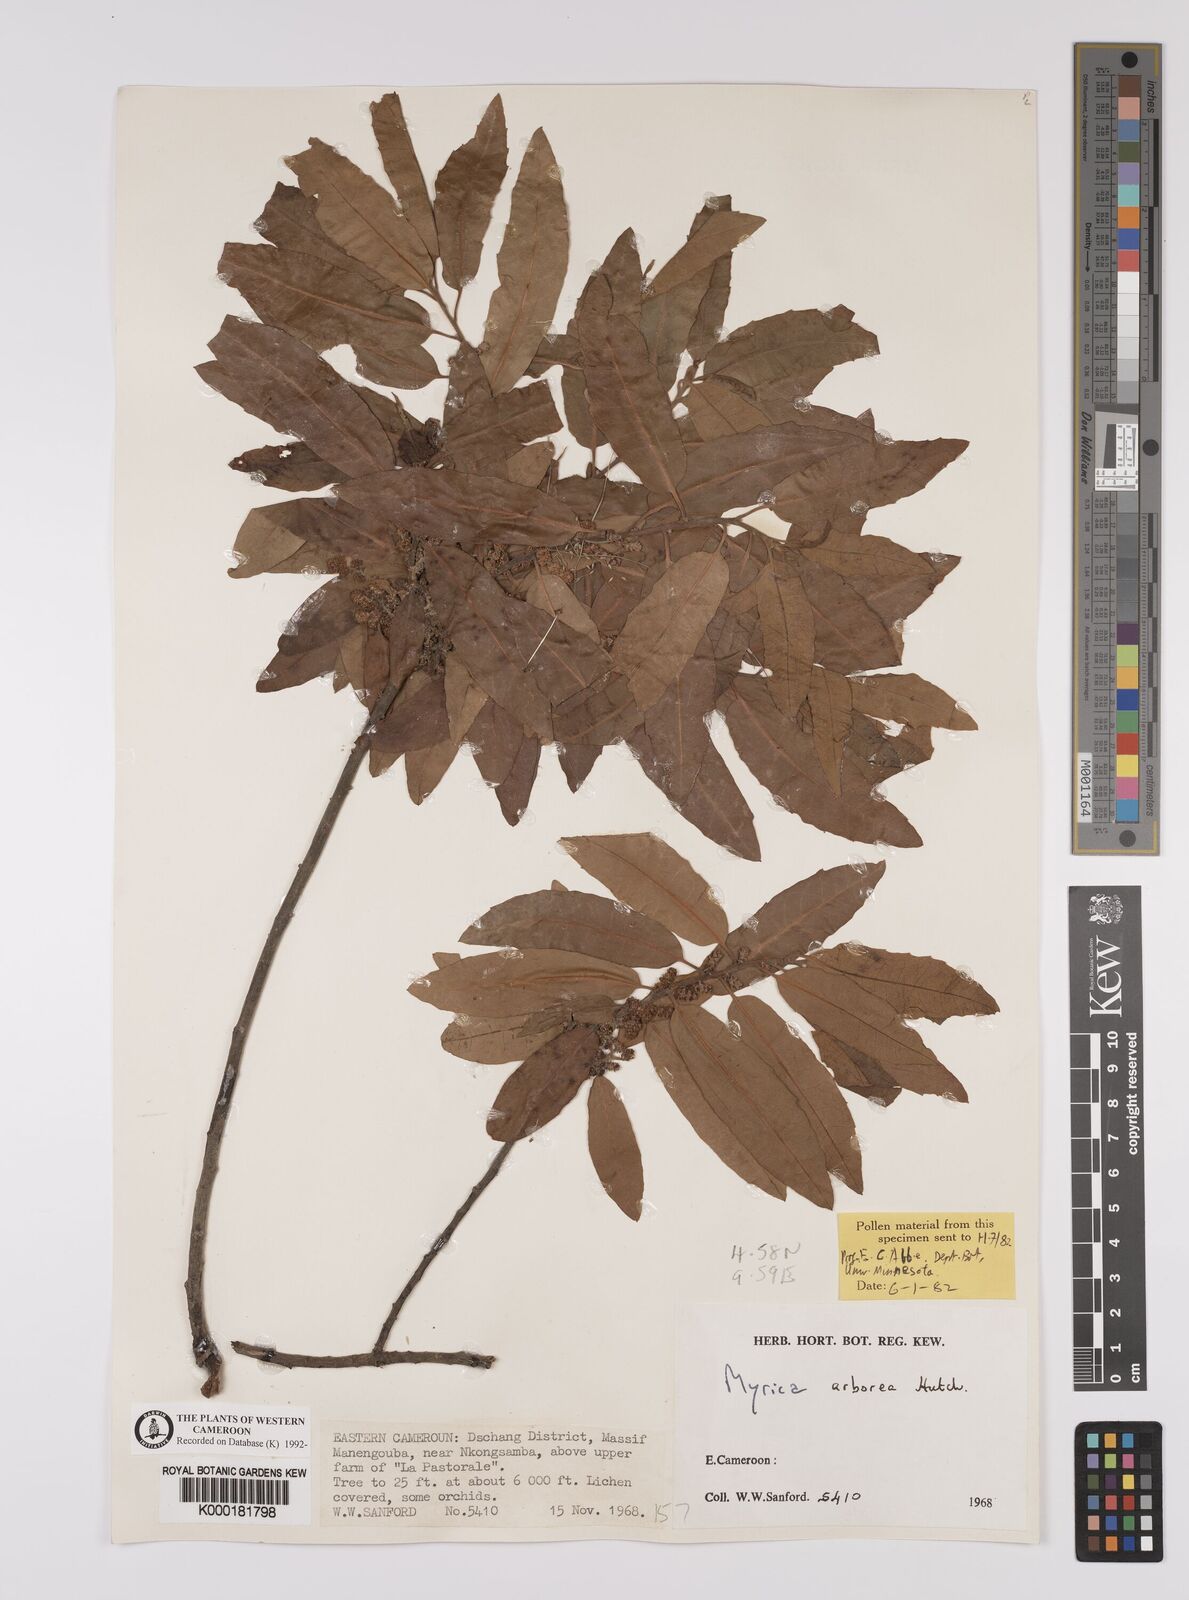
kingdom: Plantae
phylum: Tracheophyta
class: Magnoliopsida
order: Fagales
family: Myricaceae
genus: Morella
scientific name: Morella arborea
